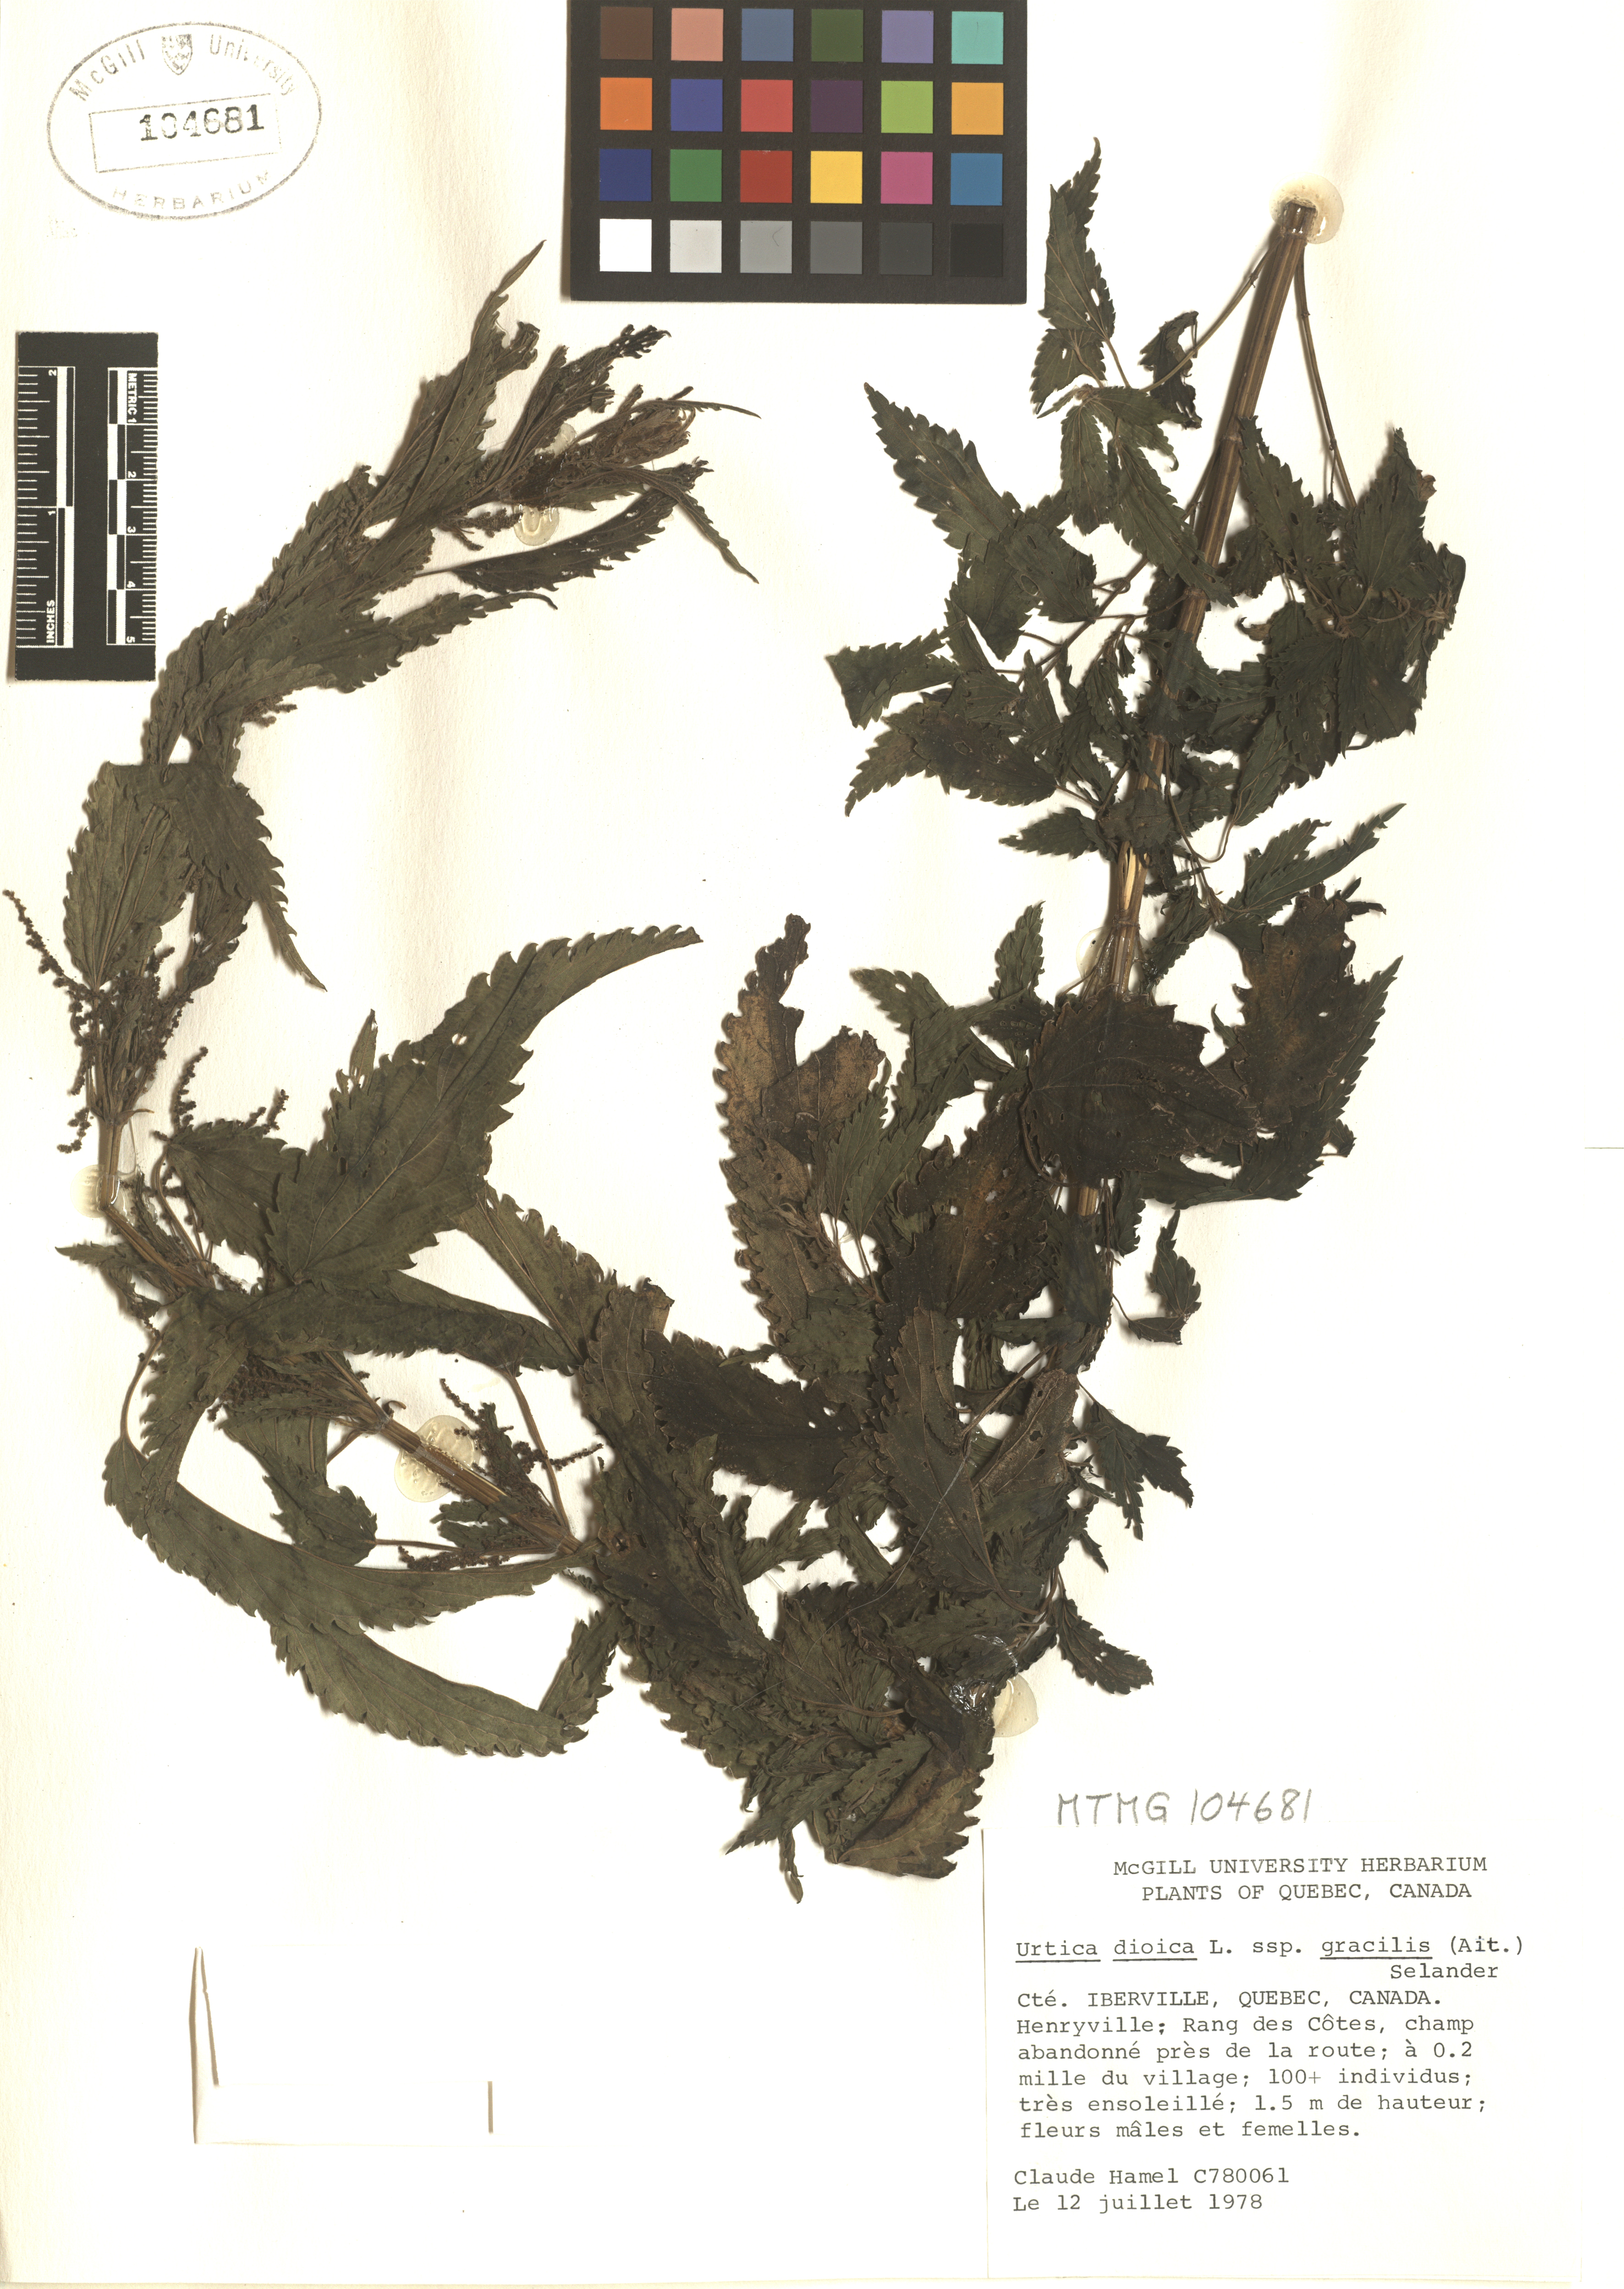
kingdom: Plantae
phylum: Tracheophyta
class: Magnoliopsida
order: Rosales
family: Urticaceae
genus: Urtica
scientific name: Urtica gracilis
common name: Slender stinging nettle
